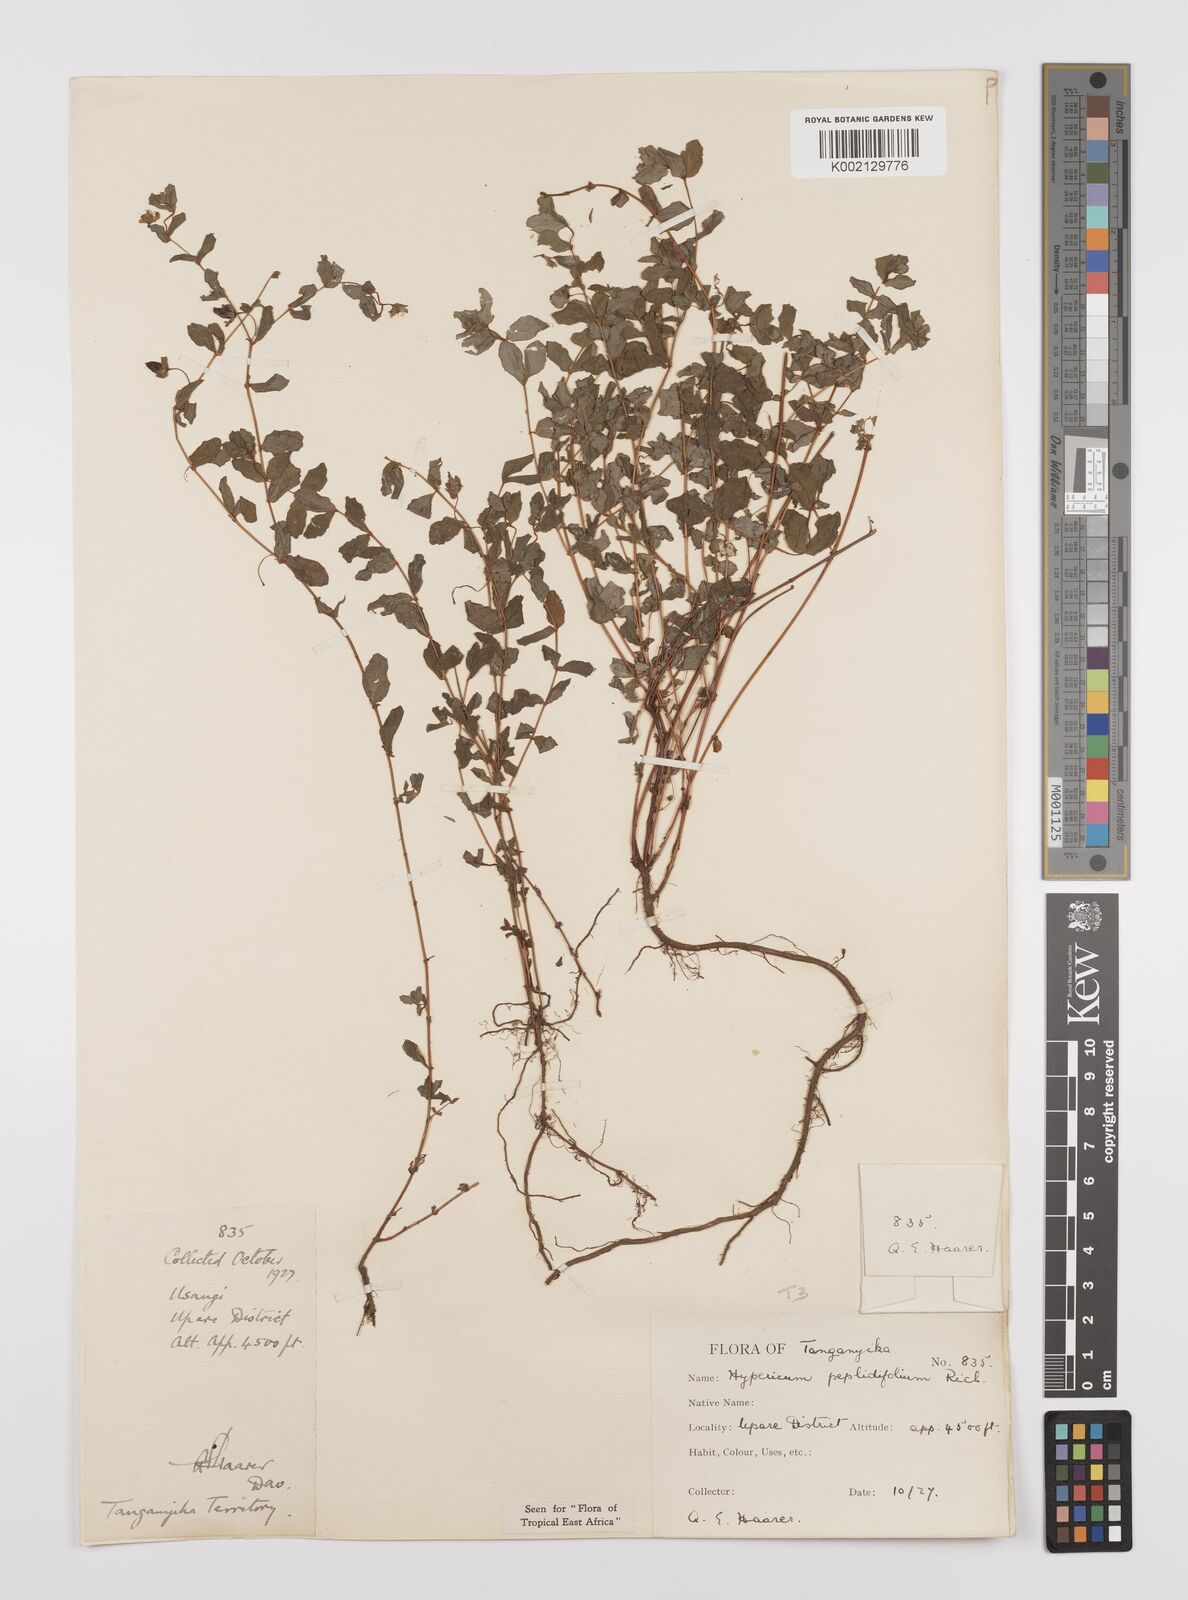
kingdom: Plantae
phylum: Tracheophyta
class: Magnoliopsida
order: Malpighiales
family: Hypericaceae
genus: Hypericum
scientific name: Hypericum peplidifolium
